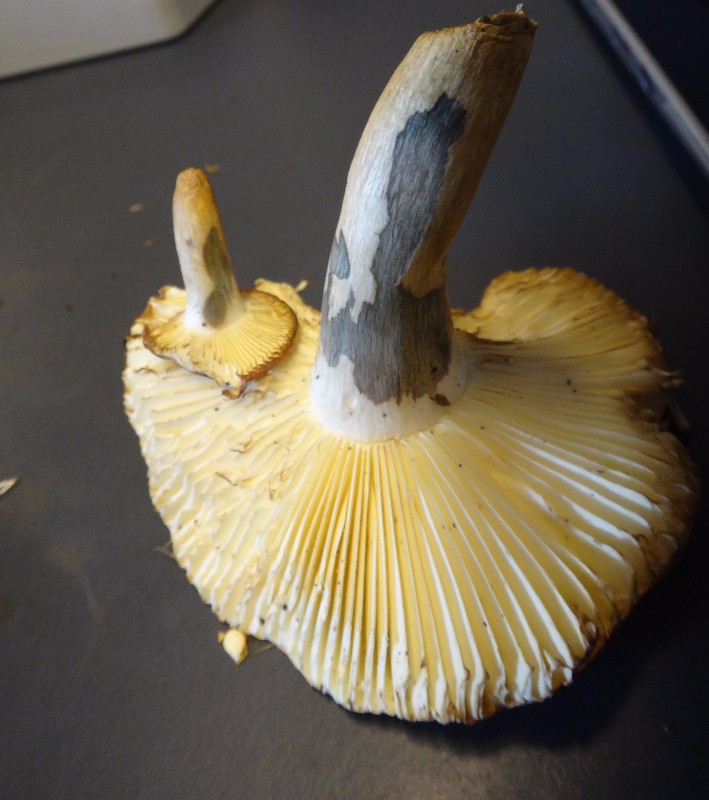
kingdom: Fungi
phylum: Basidiomycota
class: Agaricomycetes
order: Russulales
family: Russulaceae
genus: Russula
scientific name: Russula xerampelina
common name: hummer-skørhat
